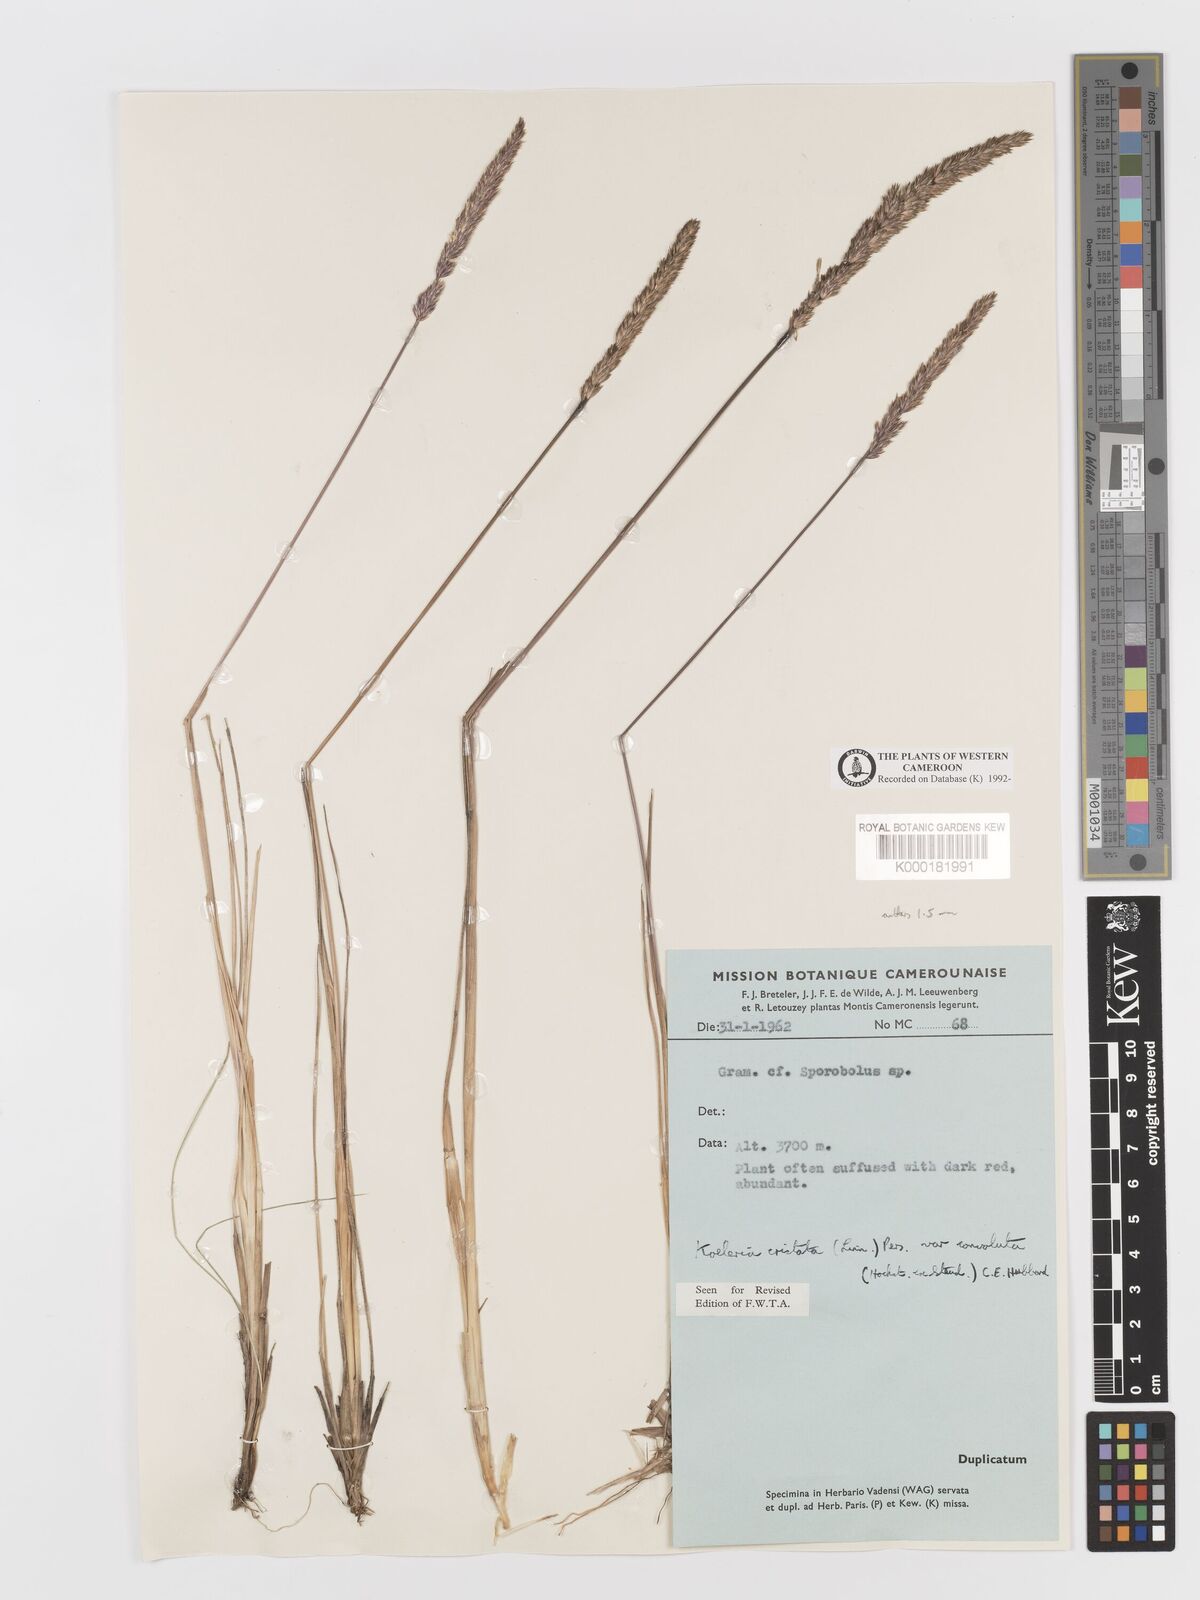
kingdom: Plantae
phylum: Tracheophyta
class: Liliopsida
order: Poales
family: Poaceae
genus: Koeleria
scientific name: Koeleria capensis
